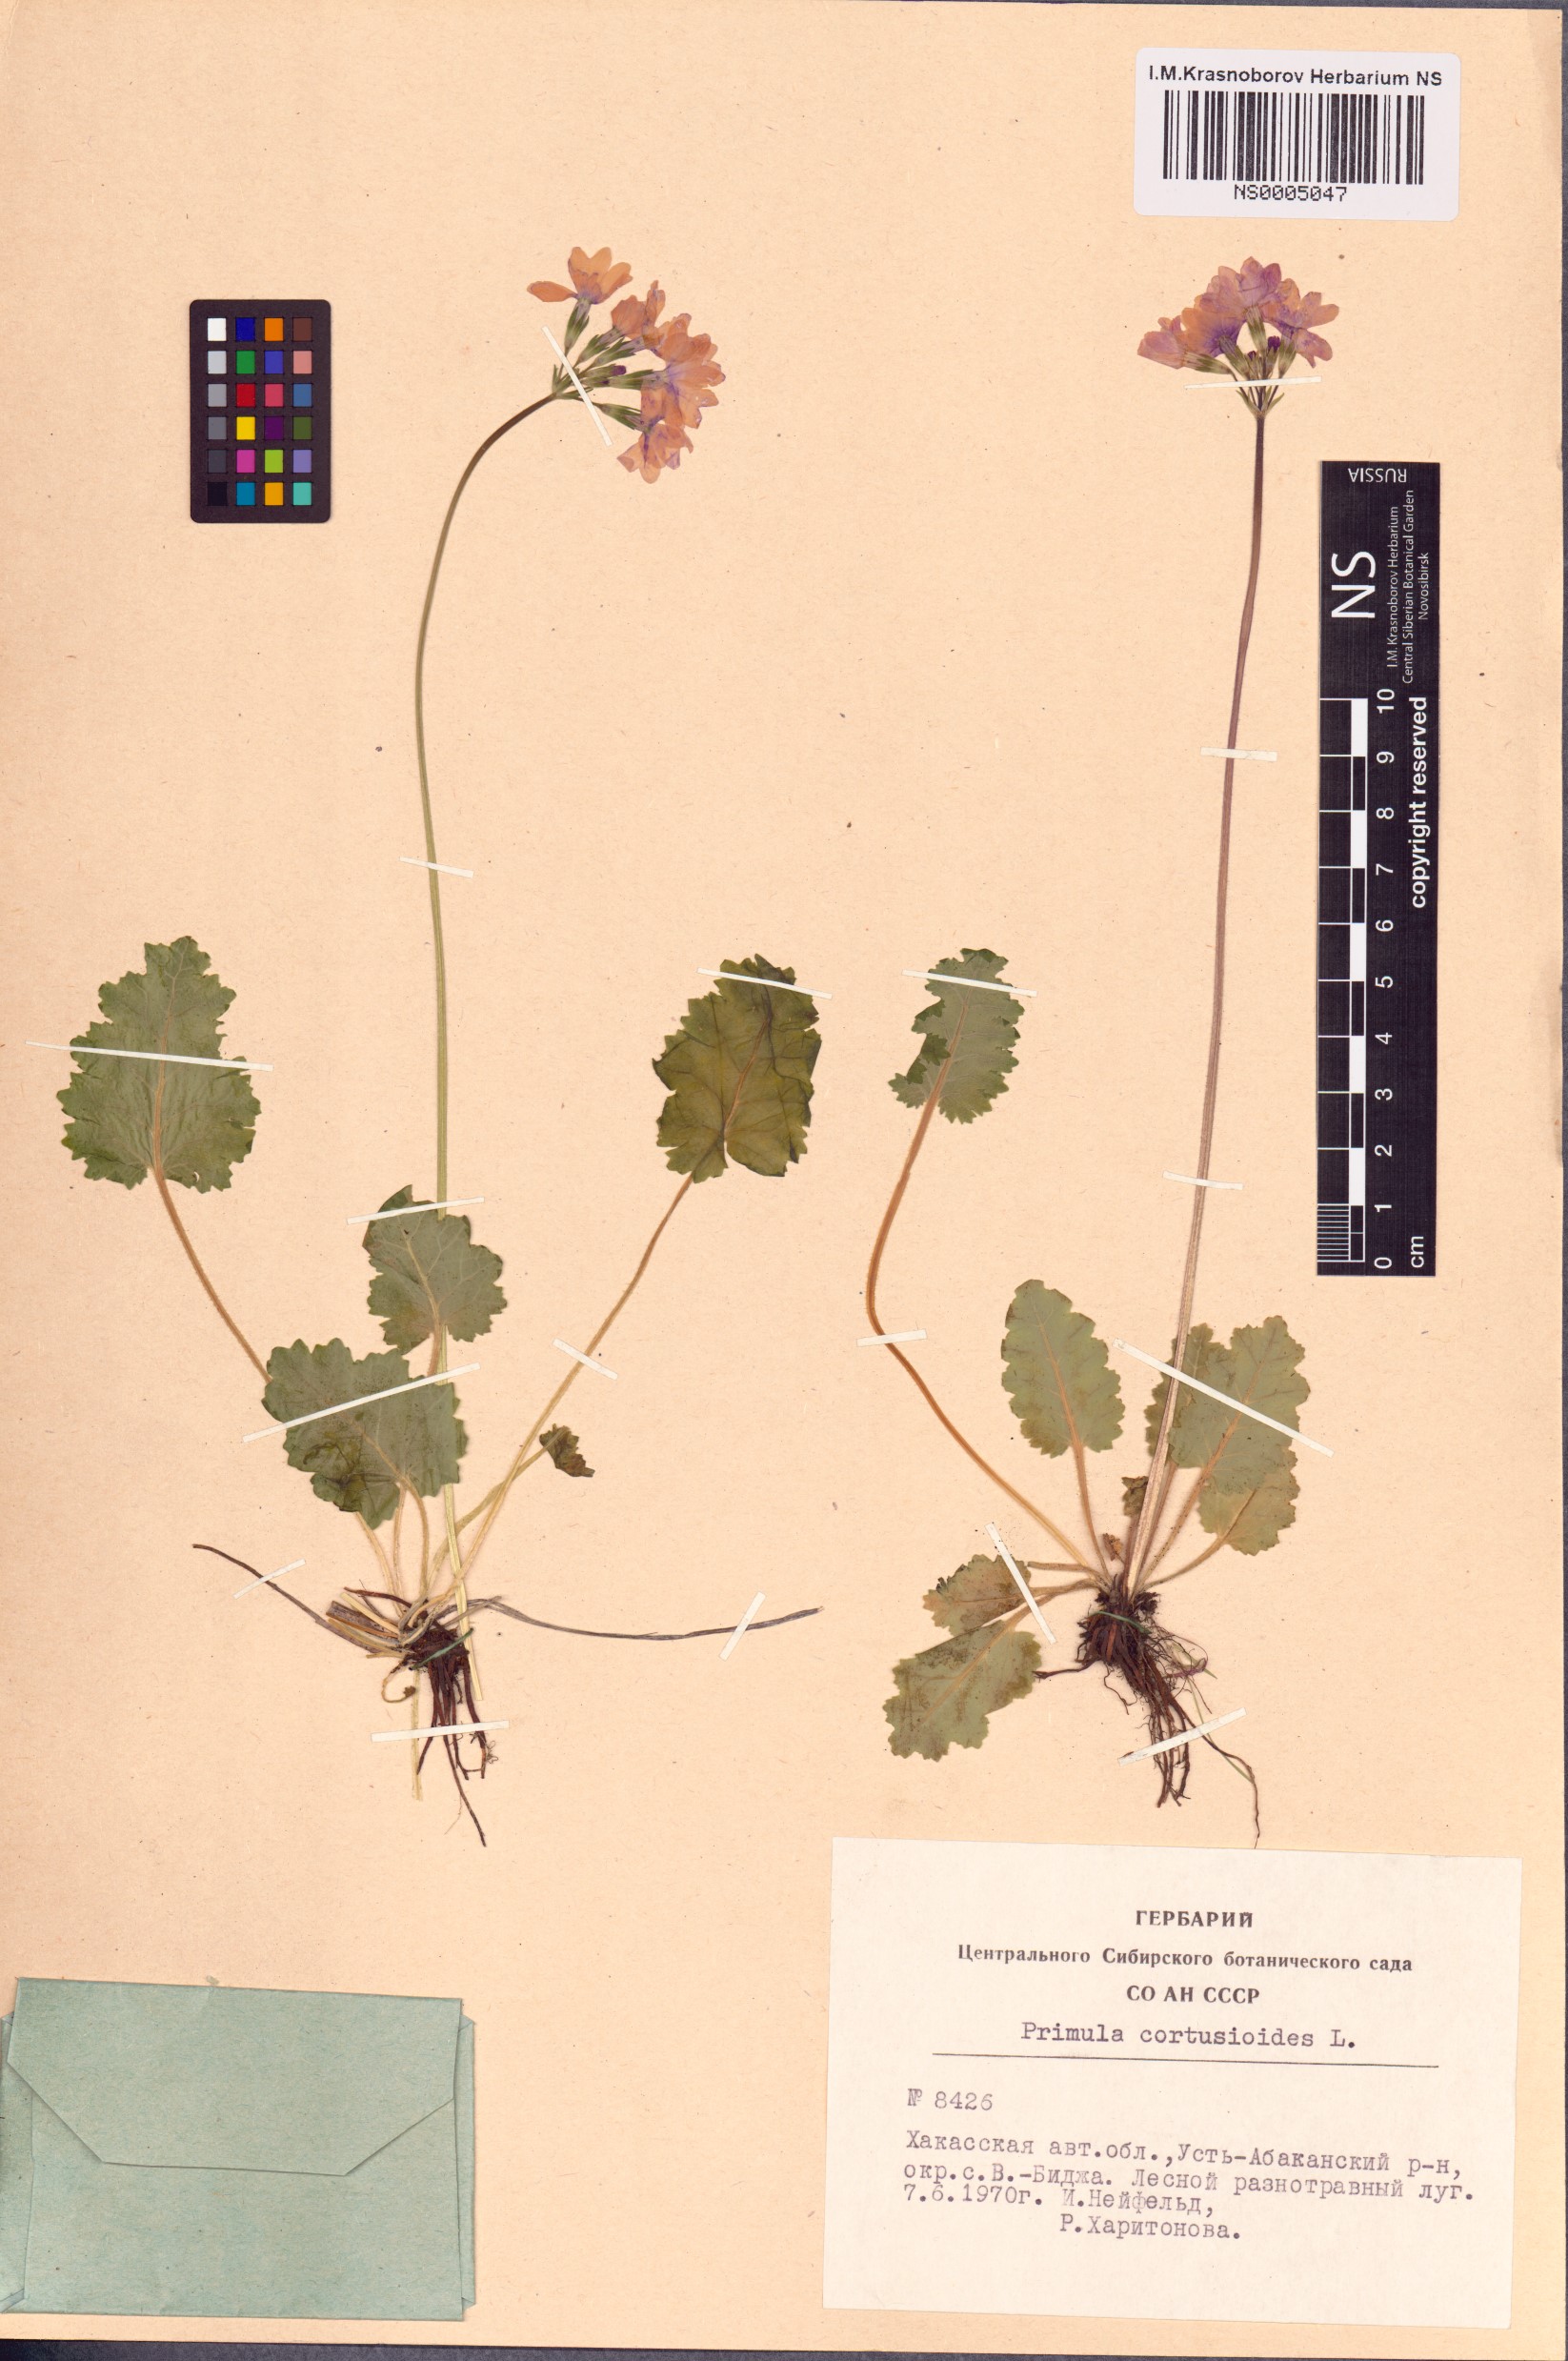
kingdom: Plantae
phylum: Tracheophyta
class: Magnoliopsida
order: Ericales
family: Primulaceae
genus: Primula
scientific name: Primula cortusoides
